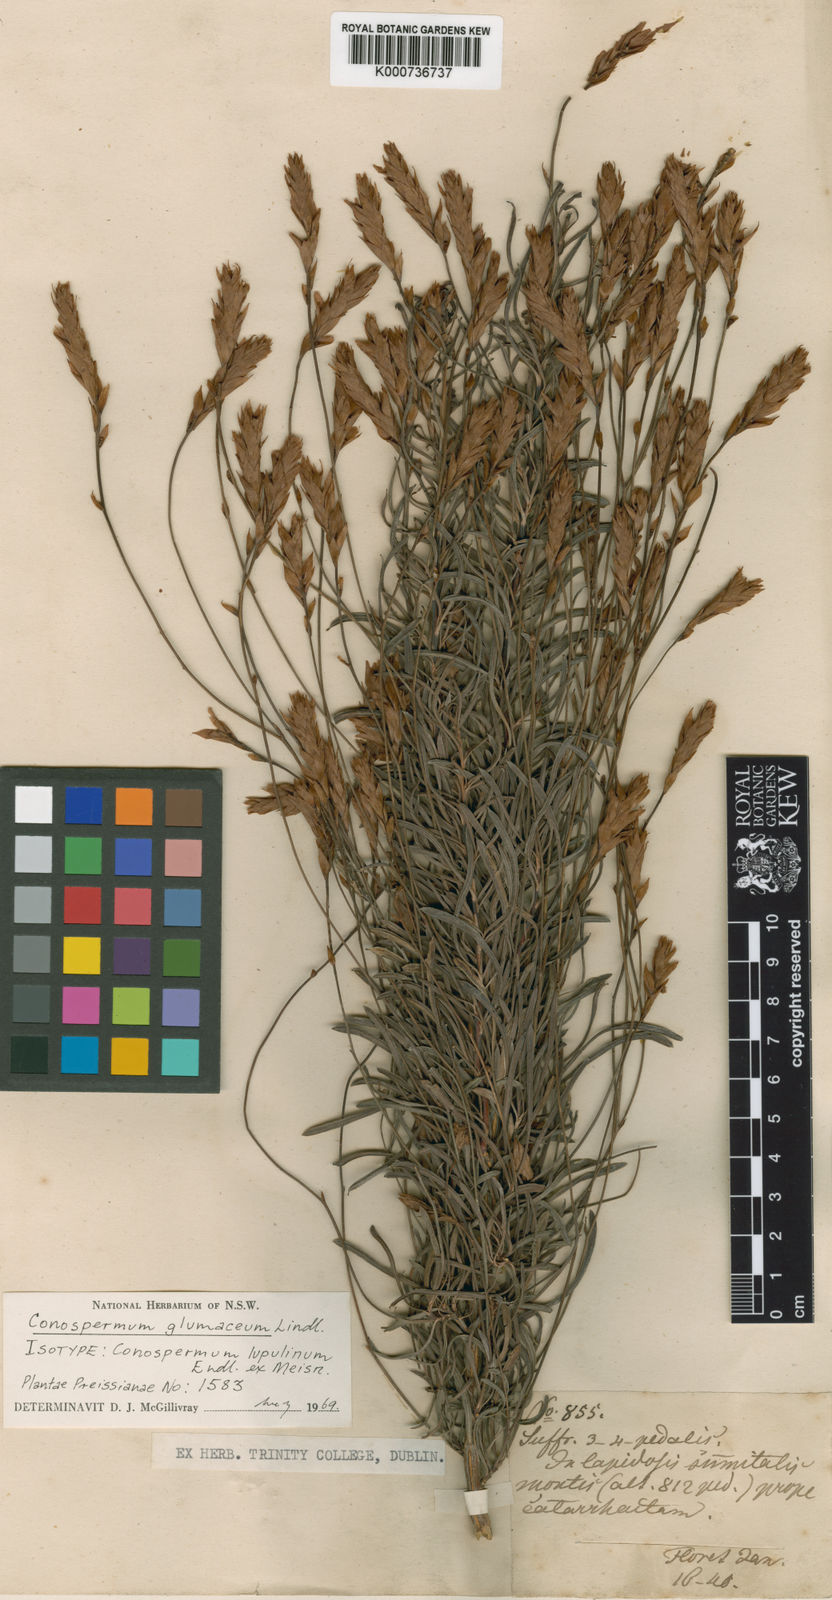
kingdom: Plantae
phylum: Tracheophyta
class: Magnoliopsida
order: Proteales
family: Proteaceae
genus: Conospermum
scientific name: Conospermum glumaceum
